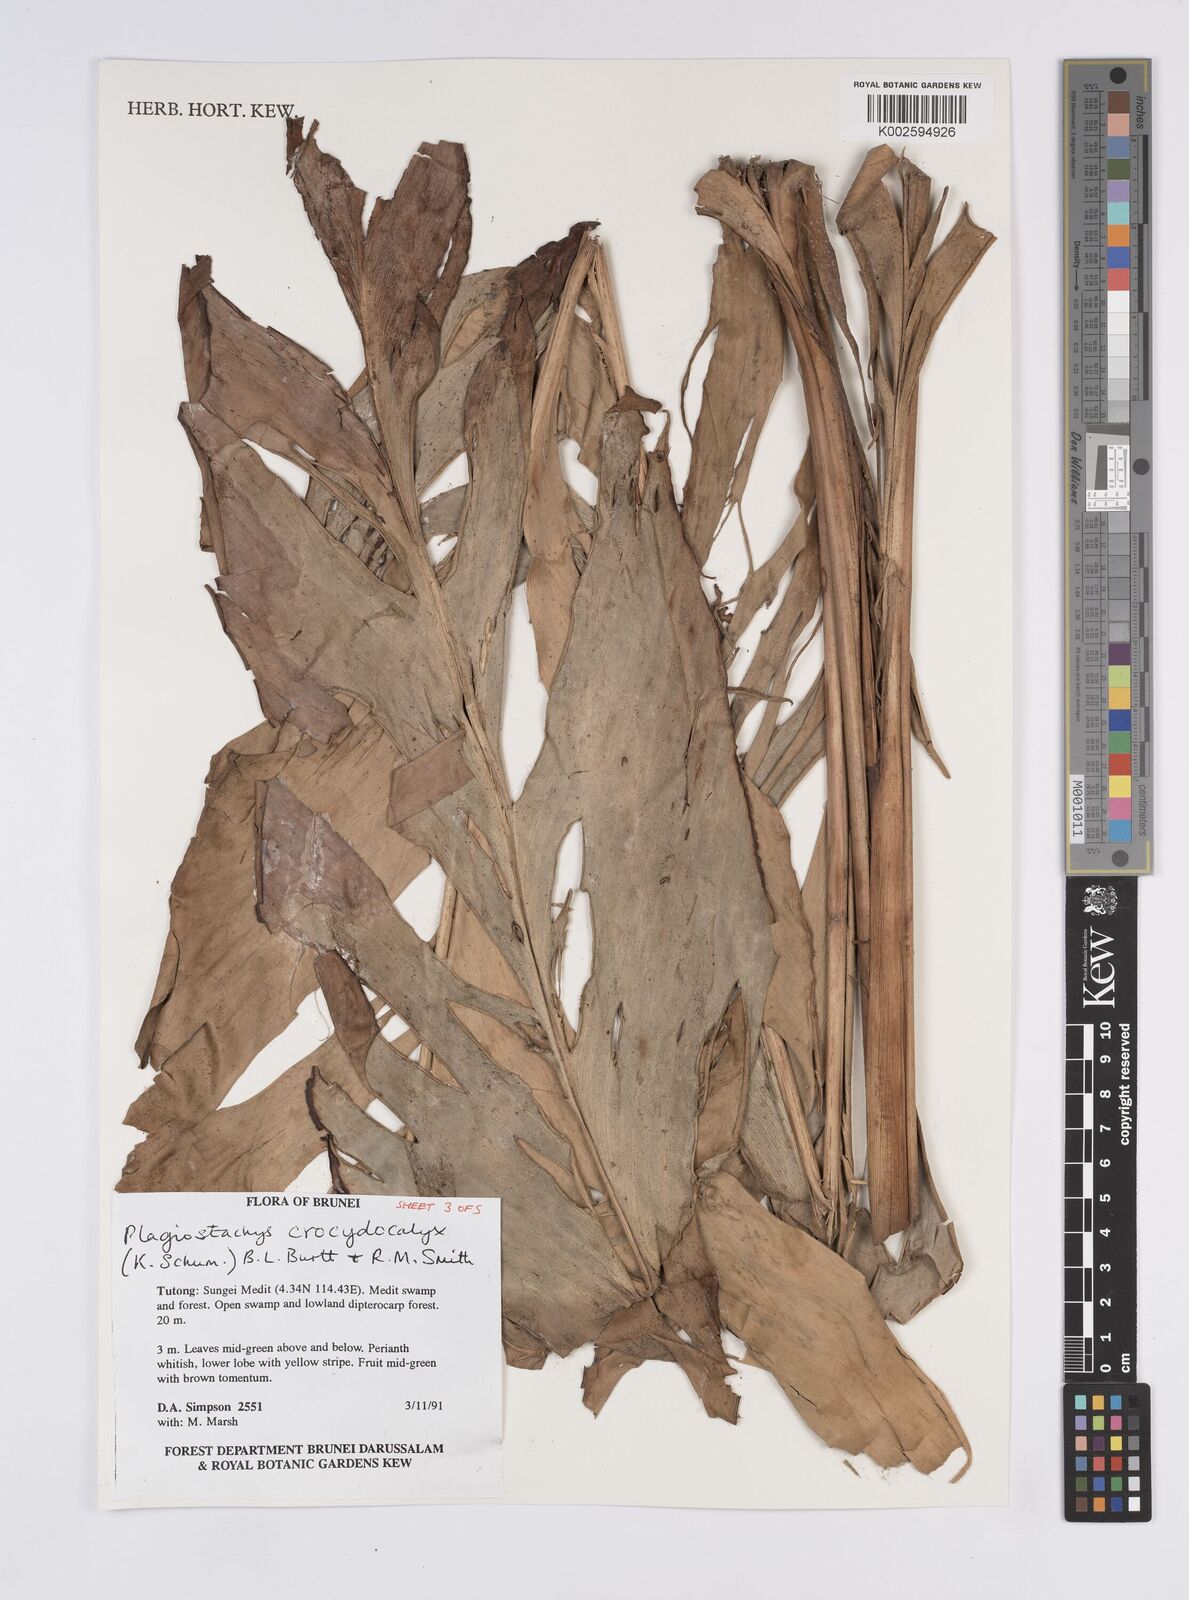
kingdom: Plantae
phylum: Tracheophyta
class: Liliopsida
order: Zingiberales
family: Zingiberaceae
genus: Plagiostachys
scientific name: Plagiostachys crocydocalyx
